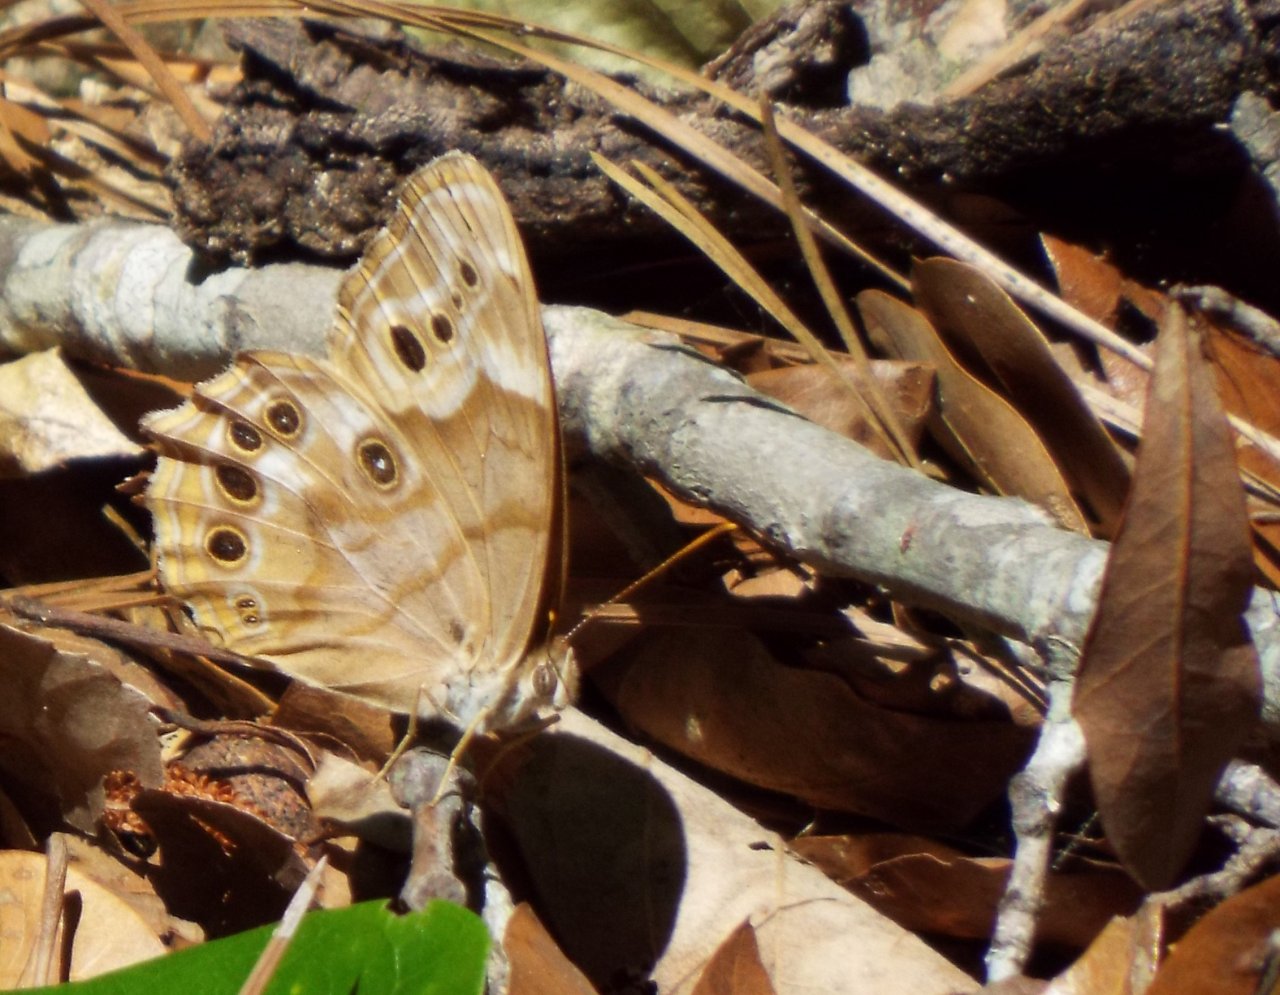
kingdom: Animalia
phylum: Arthropoda
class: Insecta
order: Lepidoptera
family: Nymphalidae
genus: Enodia
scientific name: Enodia portlandia
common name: Southern Pearly Eye
